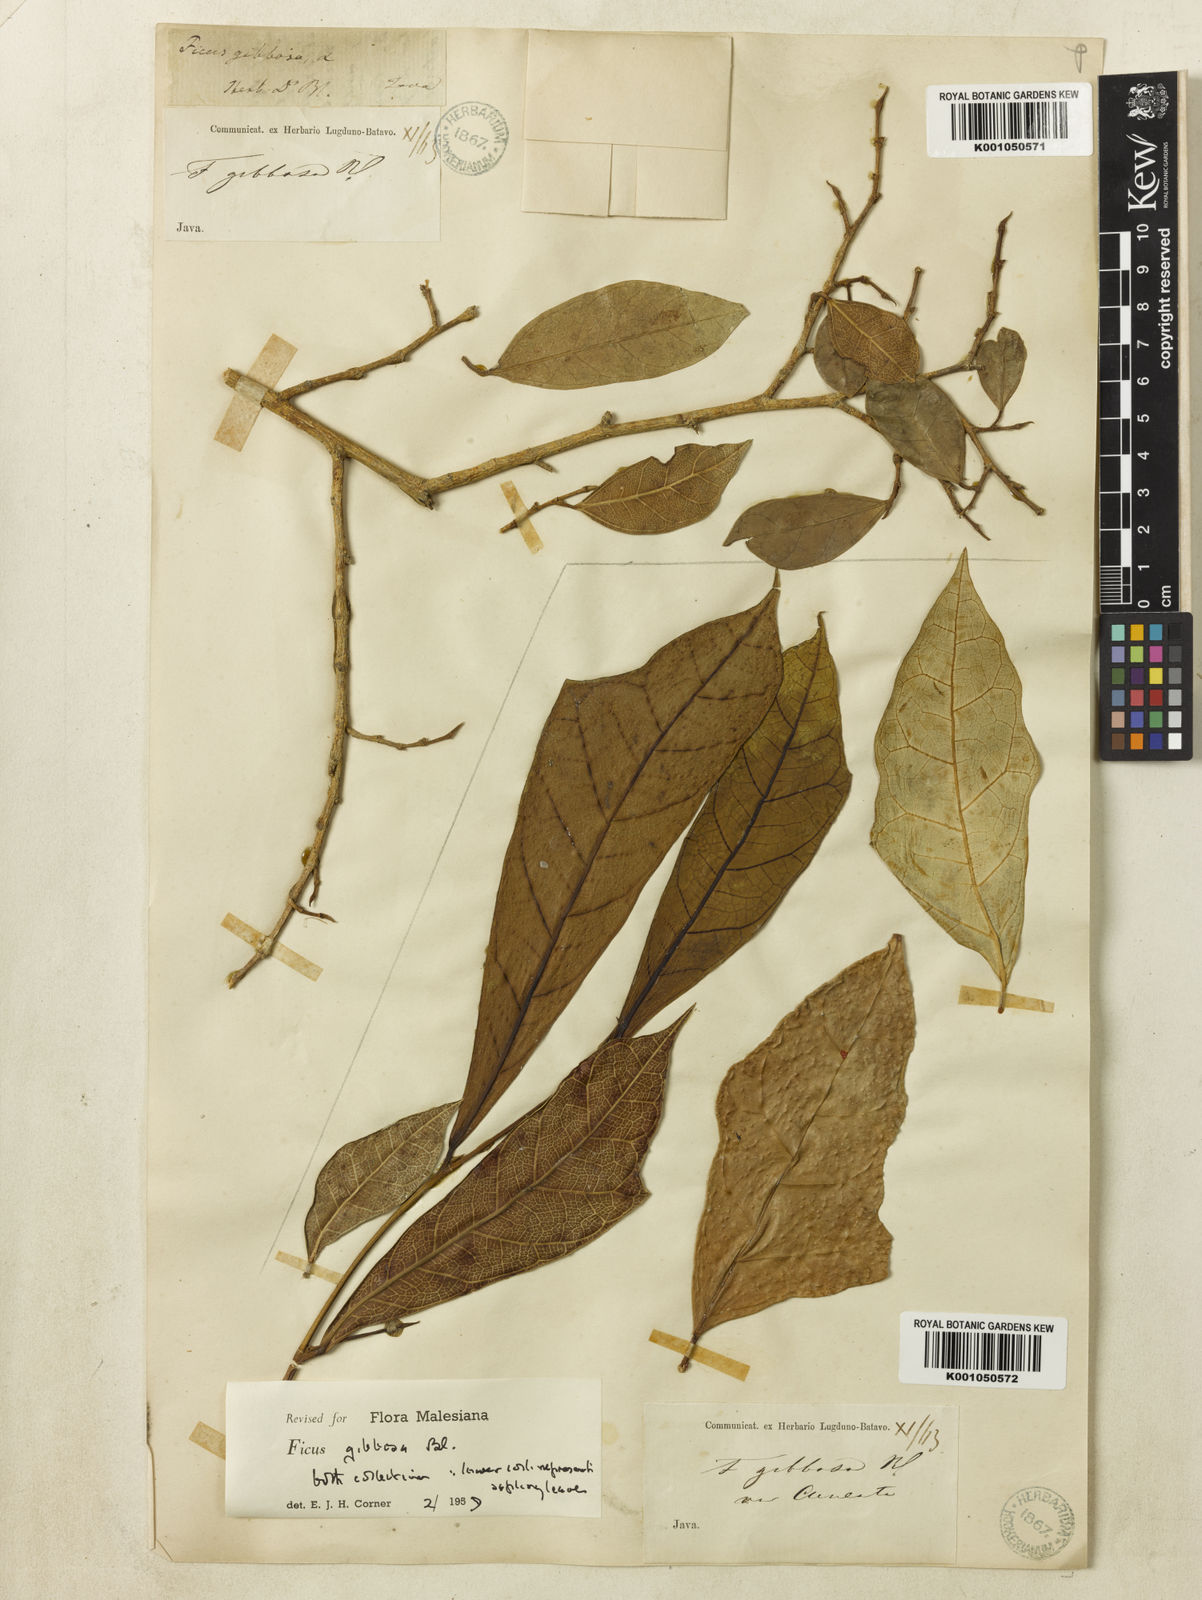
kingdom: Plantae
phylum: Tracheophyta
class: Magnoliopsida
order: Rosales
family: Moraceae
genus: Ficus
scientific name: Ficus tinctoria
